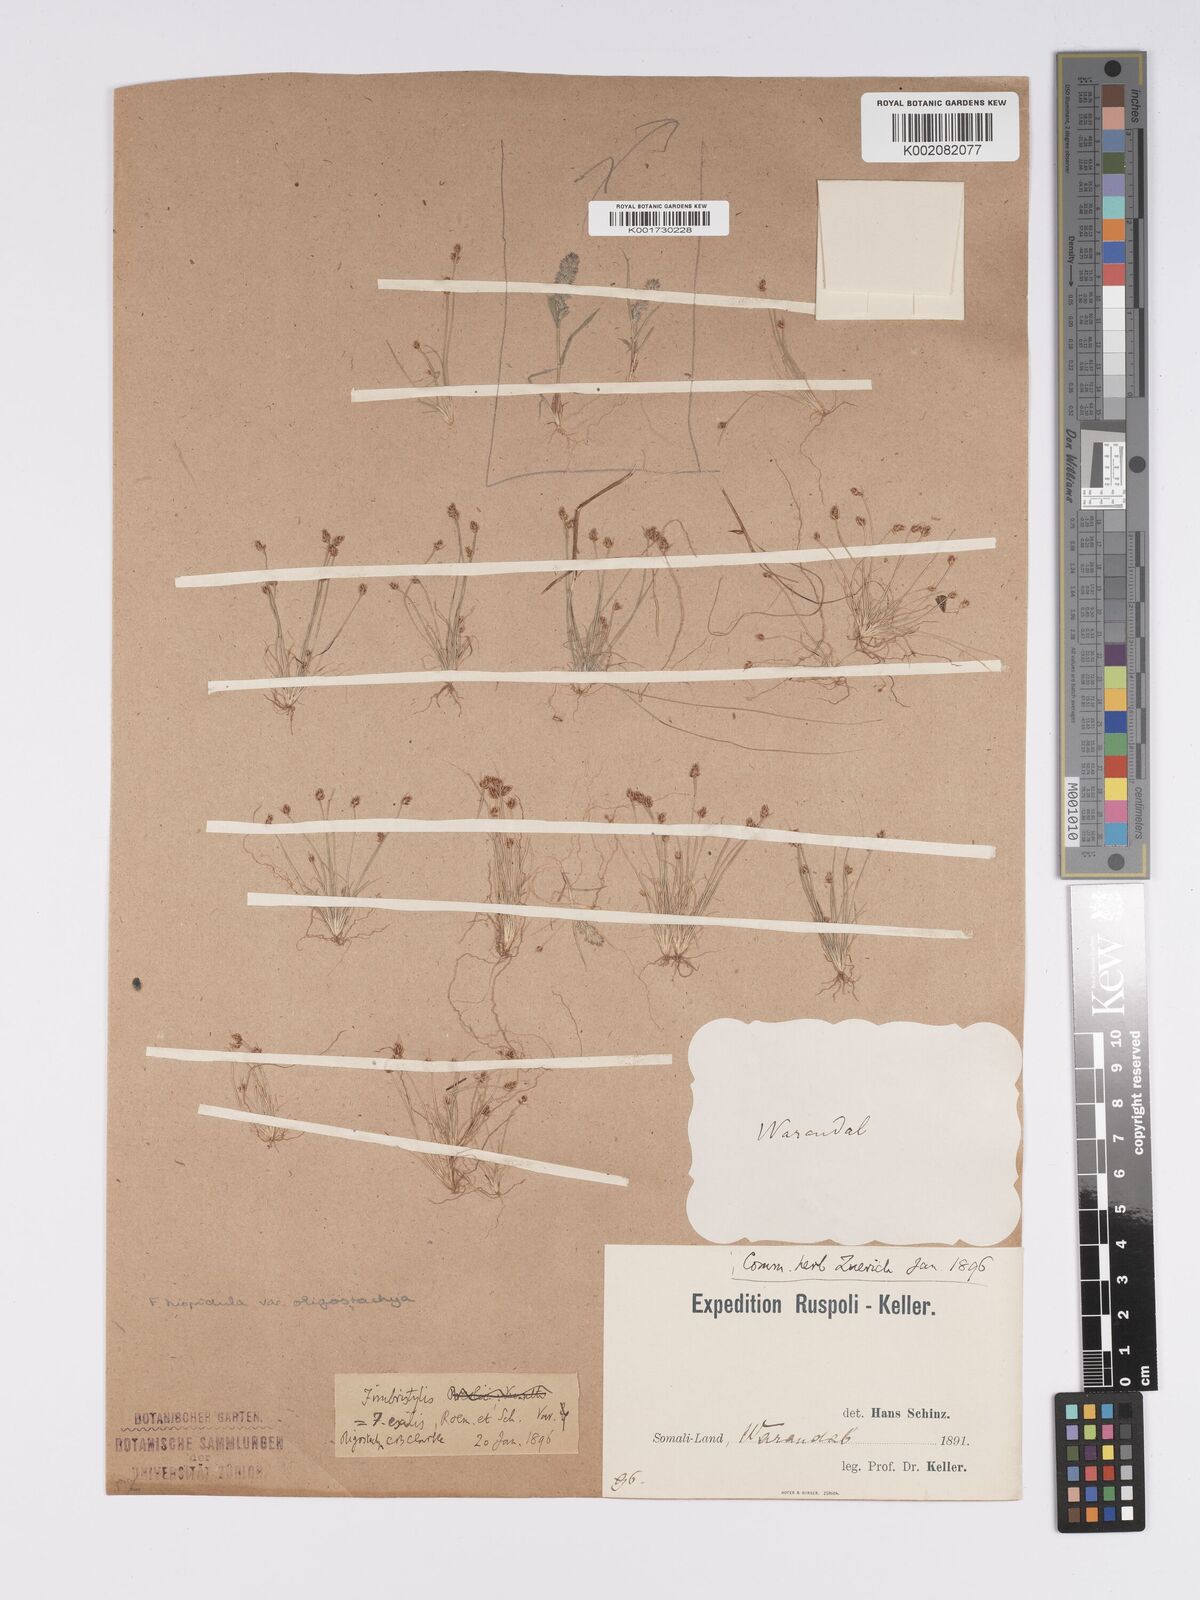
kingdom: Plantae
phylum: Tracheophyta
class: Liliopsida
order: Poales
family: Cyperaceae
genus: Bulbostylis
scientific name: Bulbostylis hispidula
